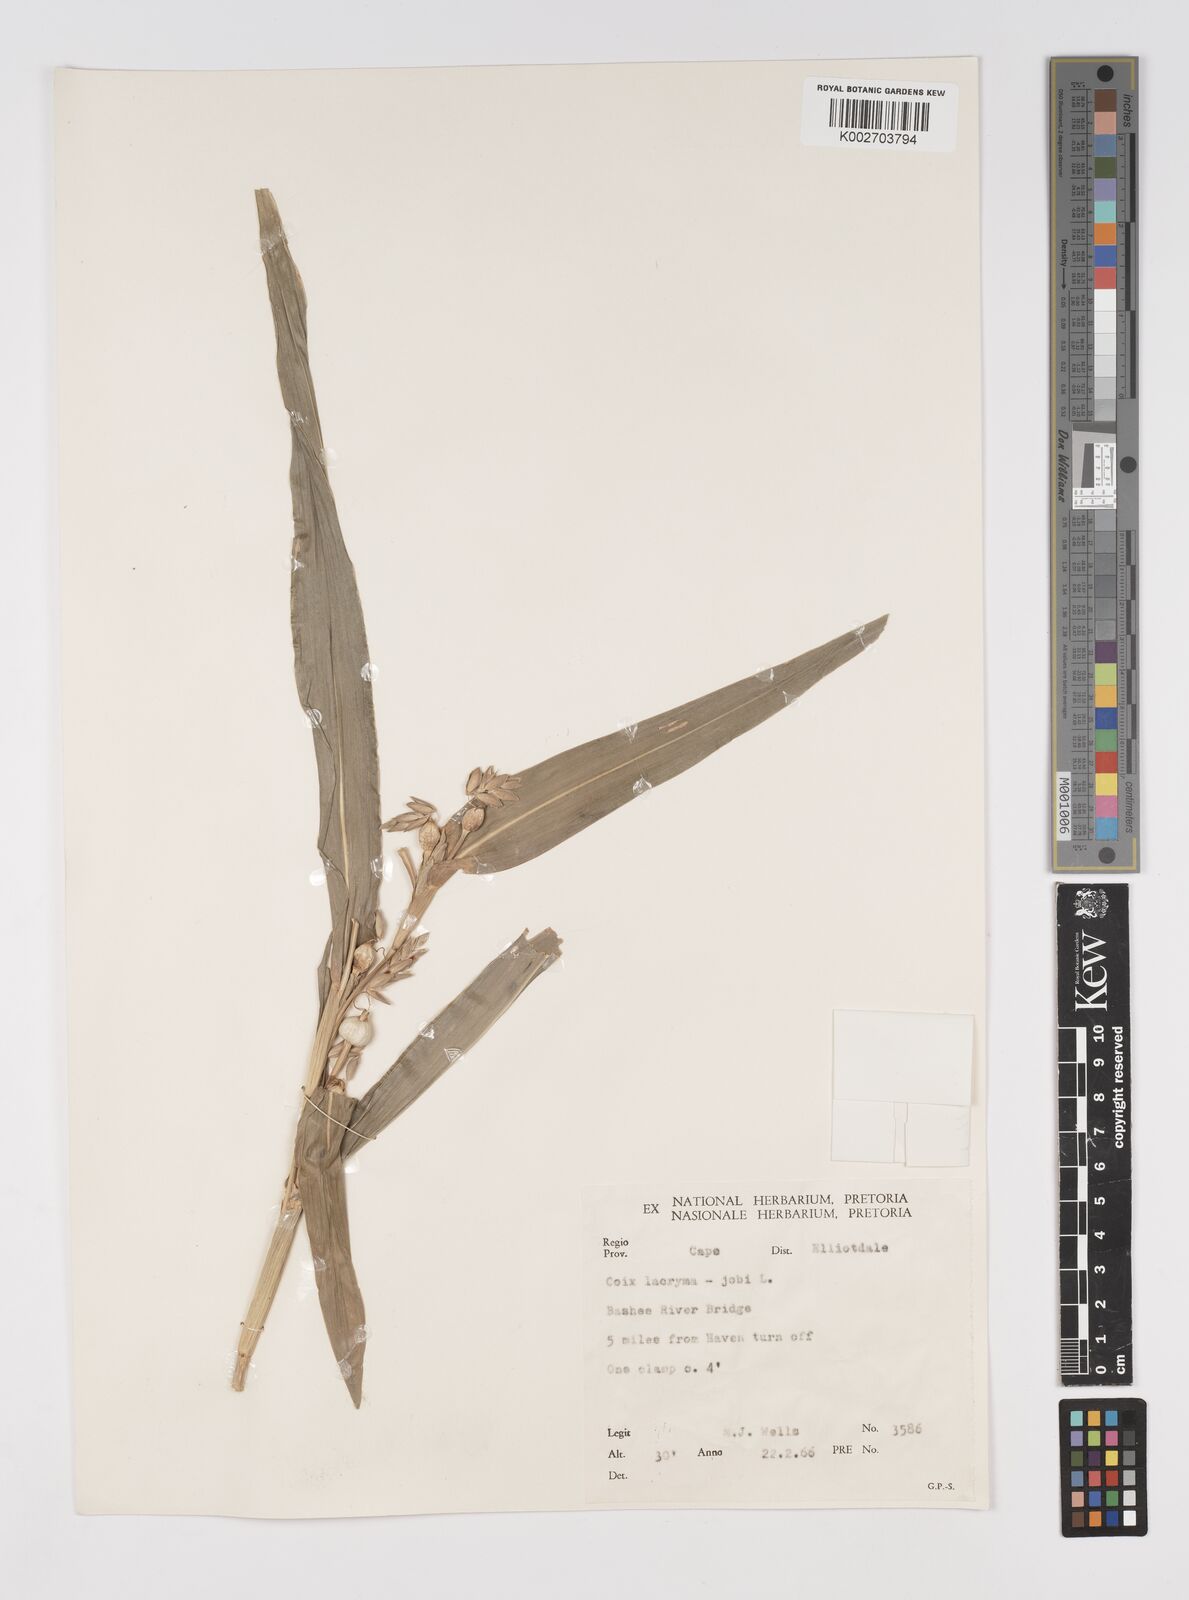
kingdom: Plantae
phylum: Tracheophyta
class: Liliopsida
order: Poales
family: Poaceae
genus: Coix
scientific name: Coix lacryma-jobi
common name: Job's tears
